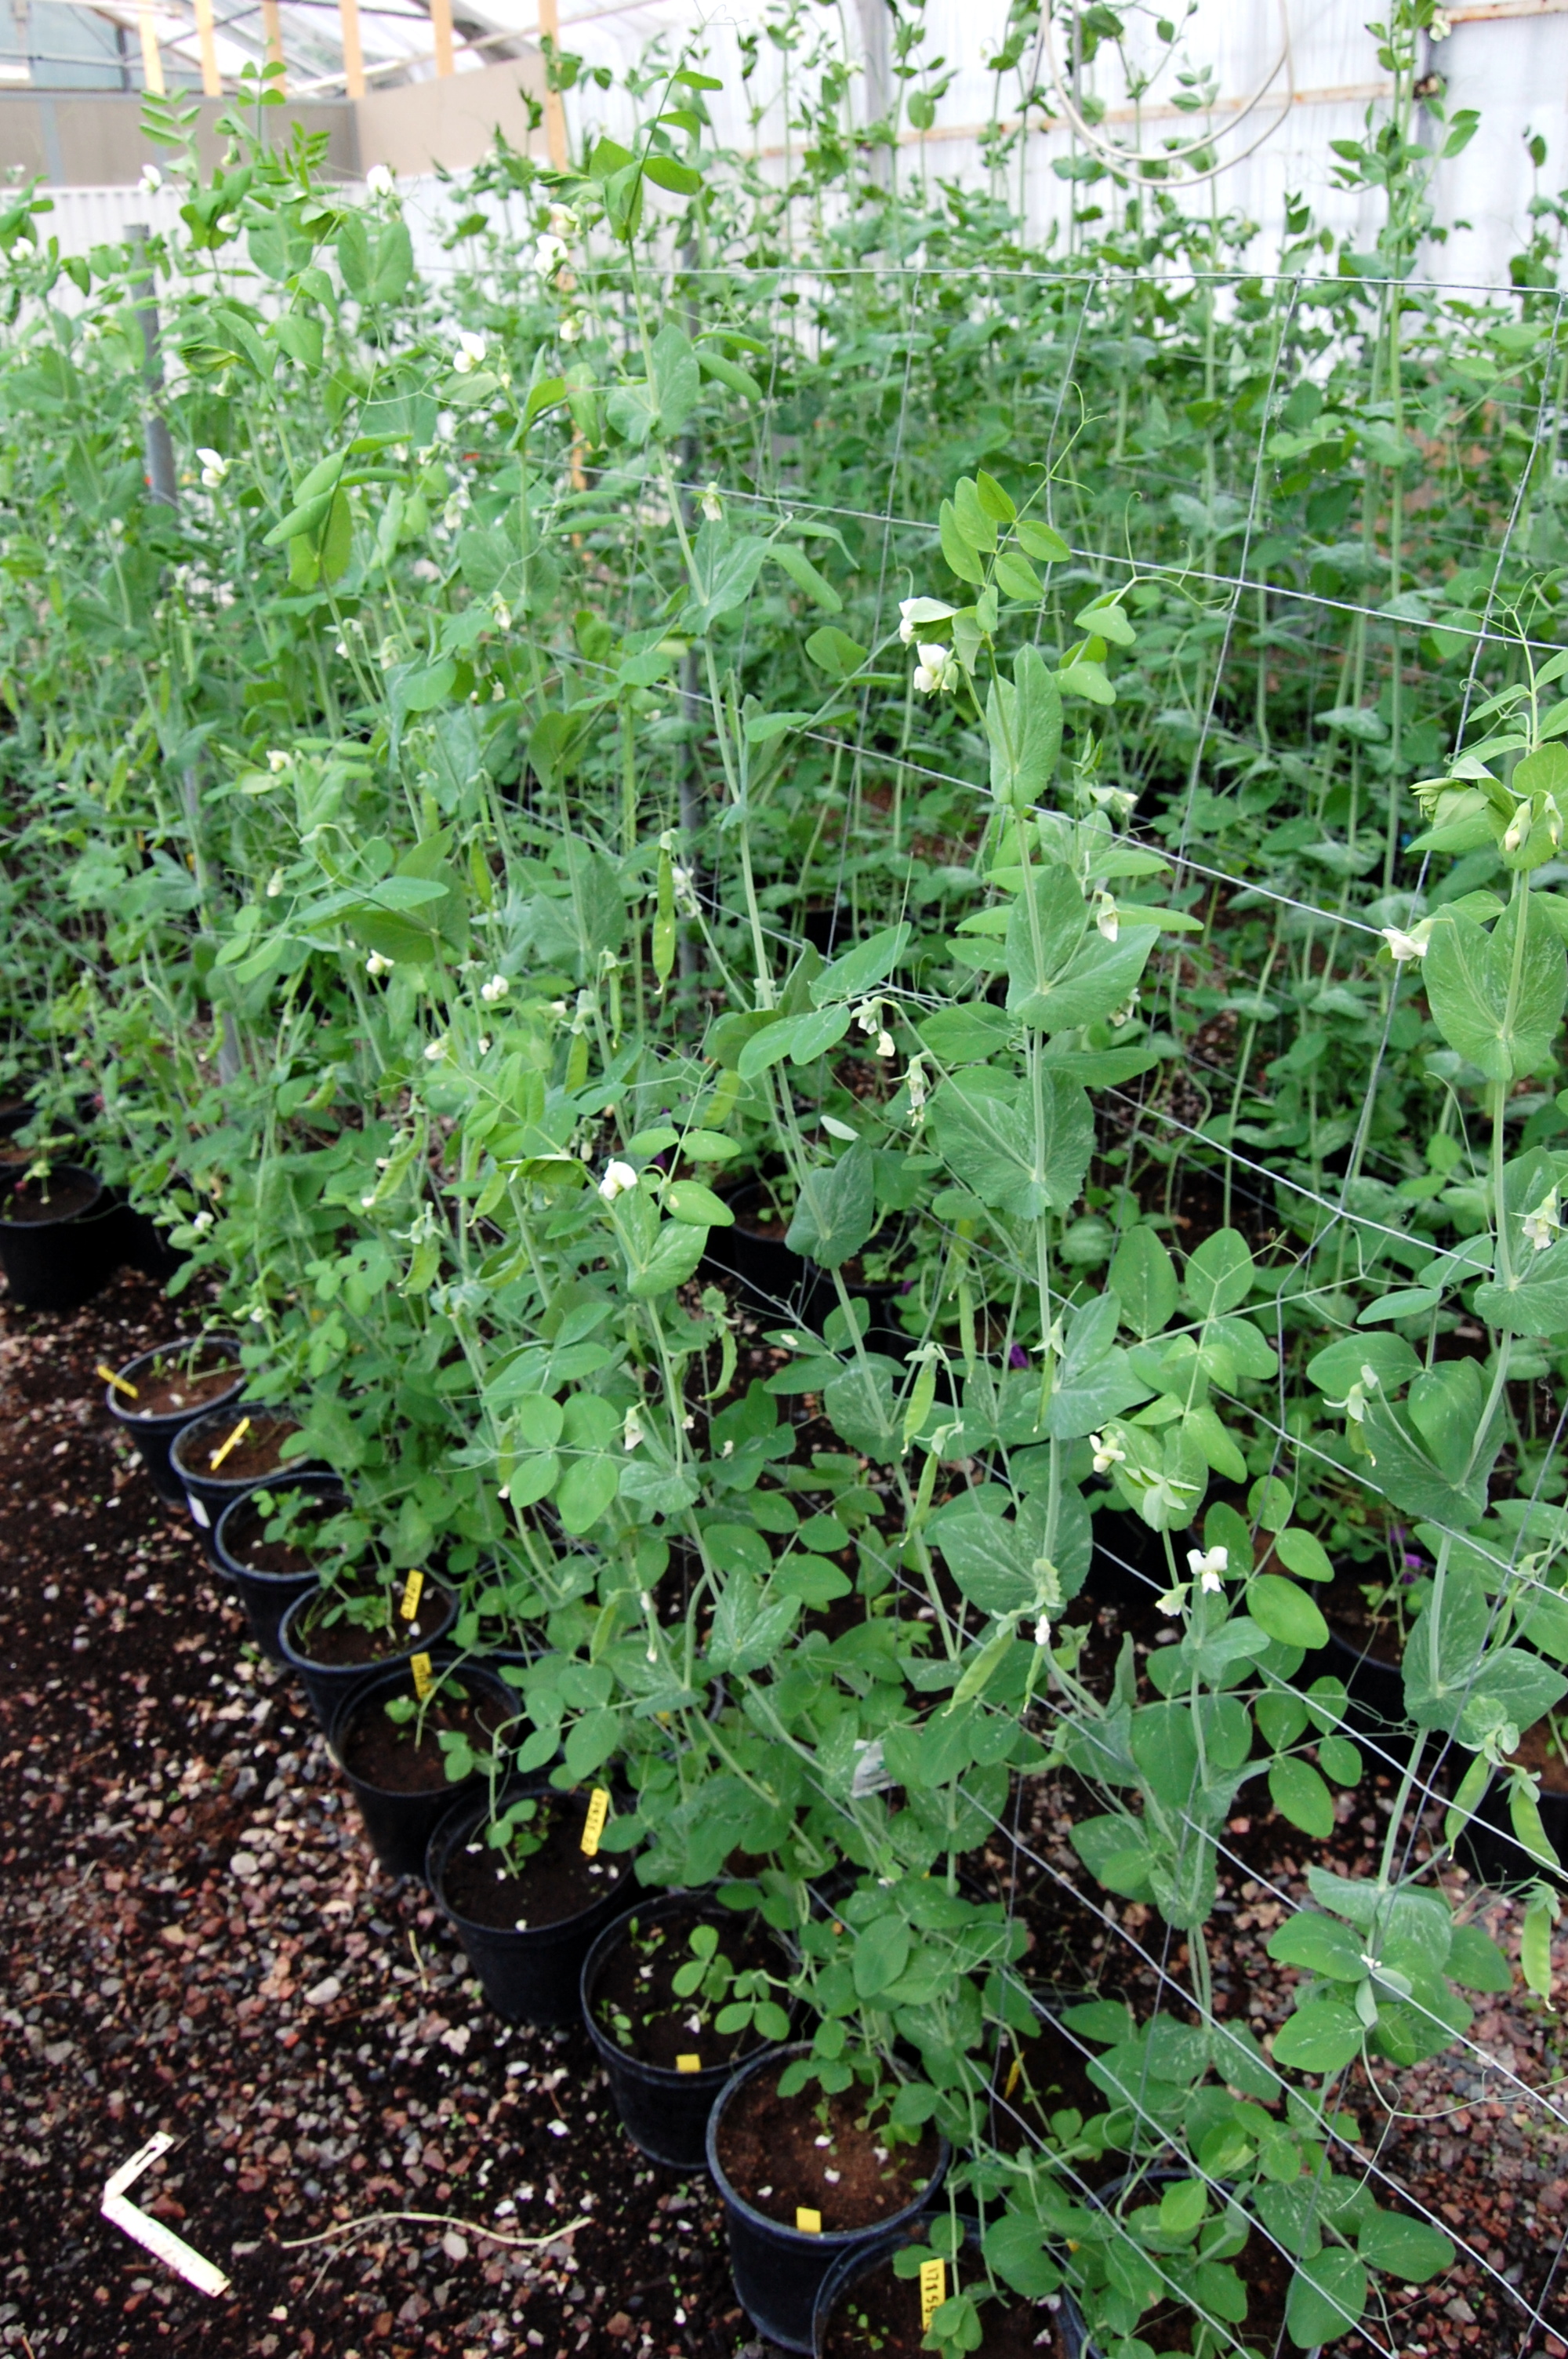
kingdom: Plantae
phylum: Tracheophyta
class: Magnoliopsida
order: Fabales
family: Fabaceae
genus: Lathyrus
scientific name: Lathyrus oleraceus
